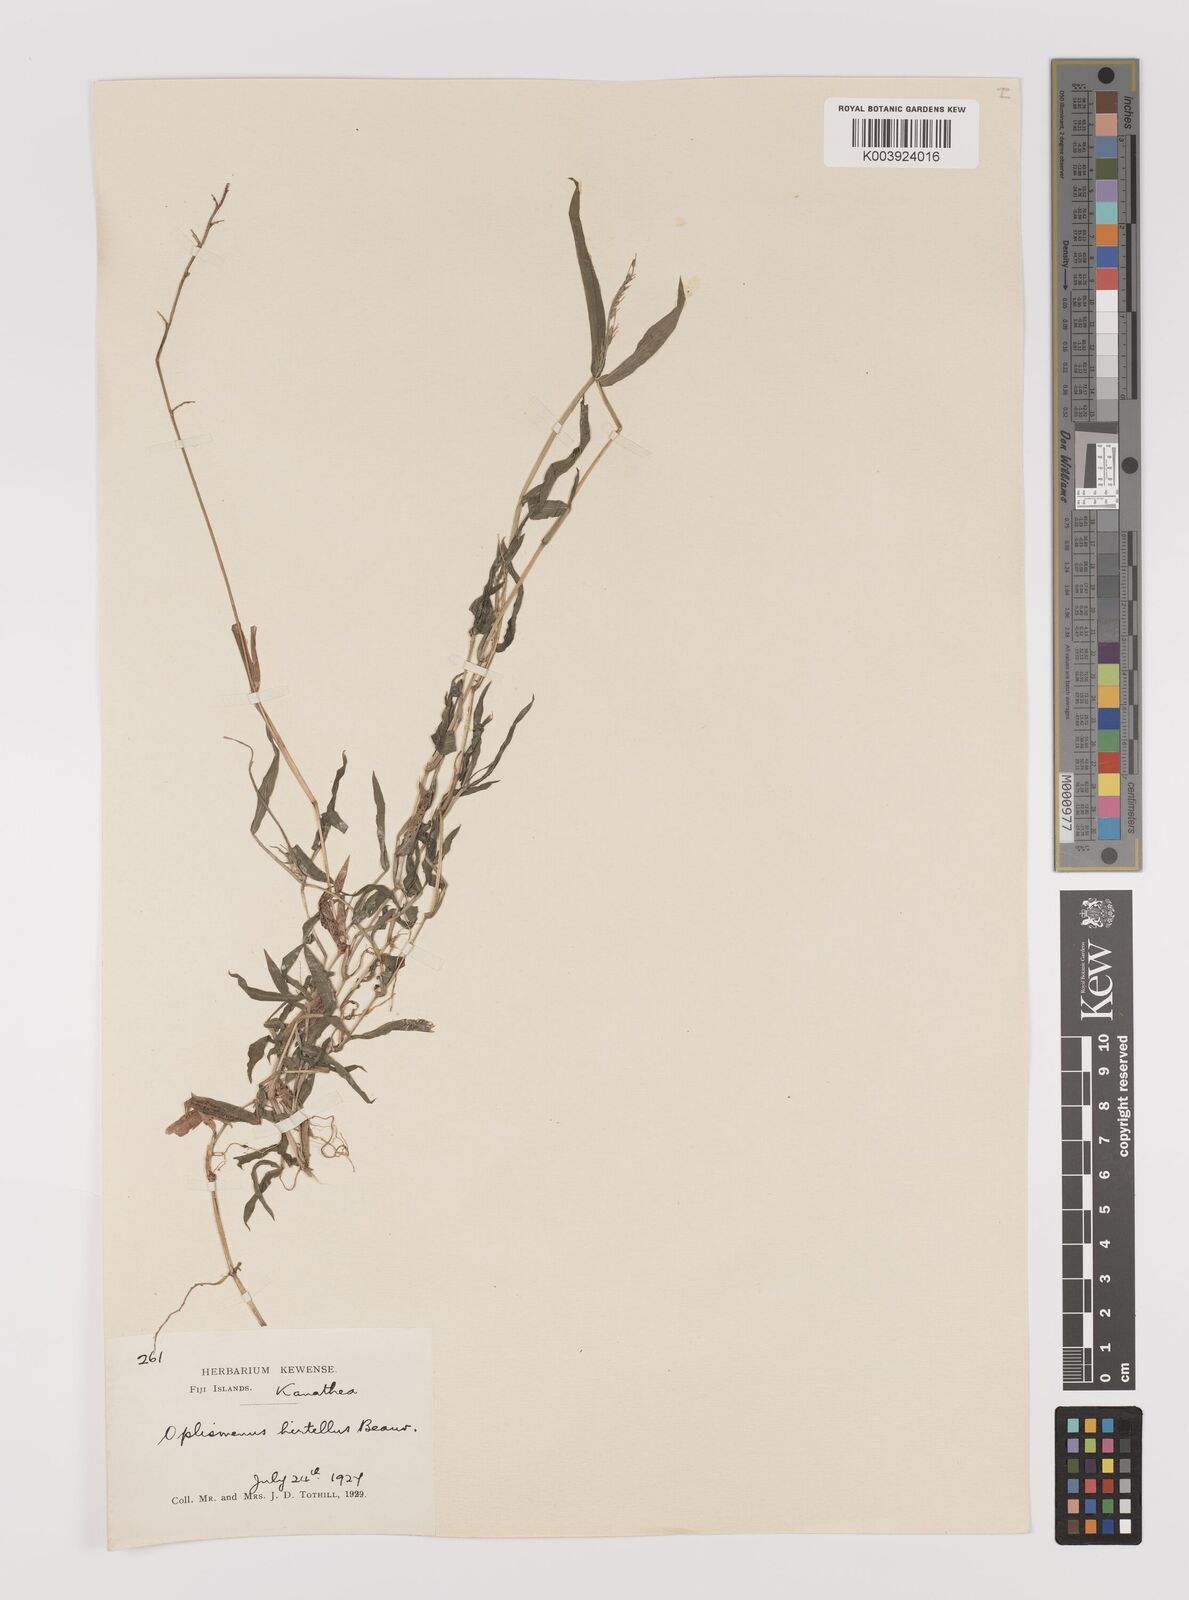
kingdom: Plantae
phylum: Tracheophyta
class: Liliopsida
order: Poales
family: Poaceae
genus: Oplismenus
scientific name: Oplismenus hirtellus
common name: Basketgrass
